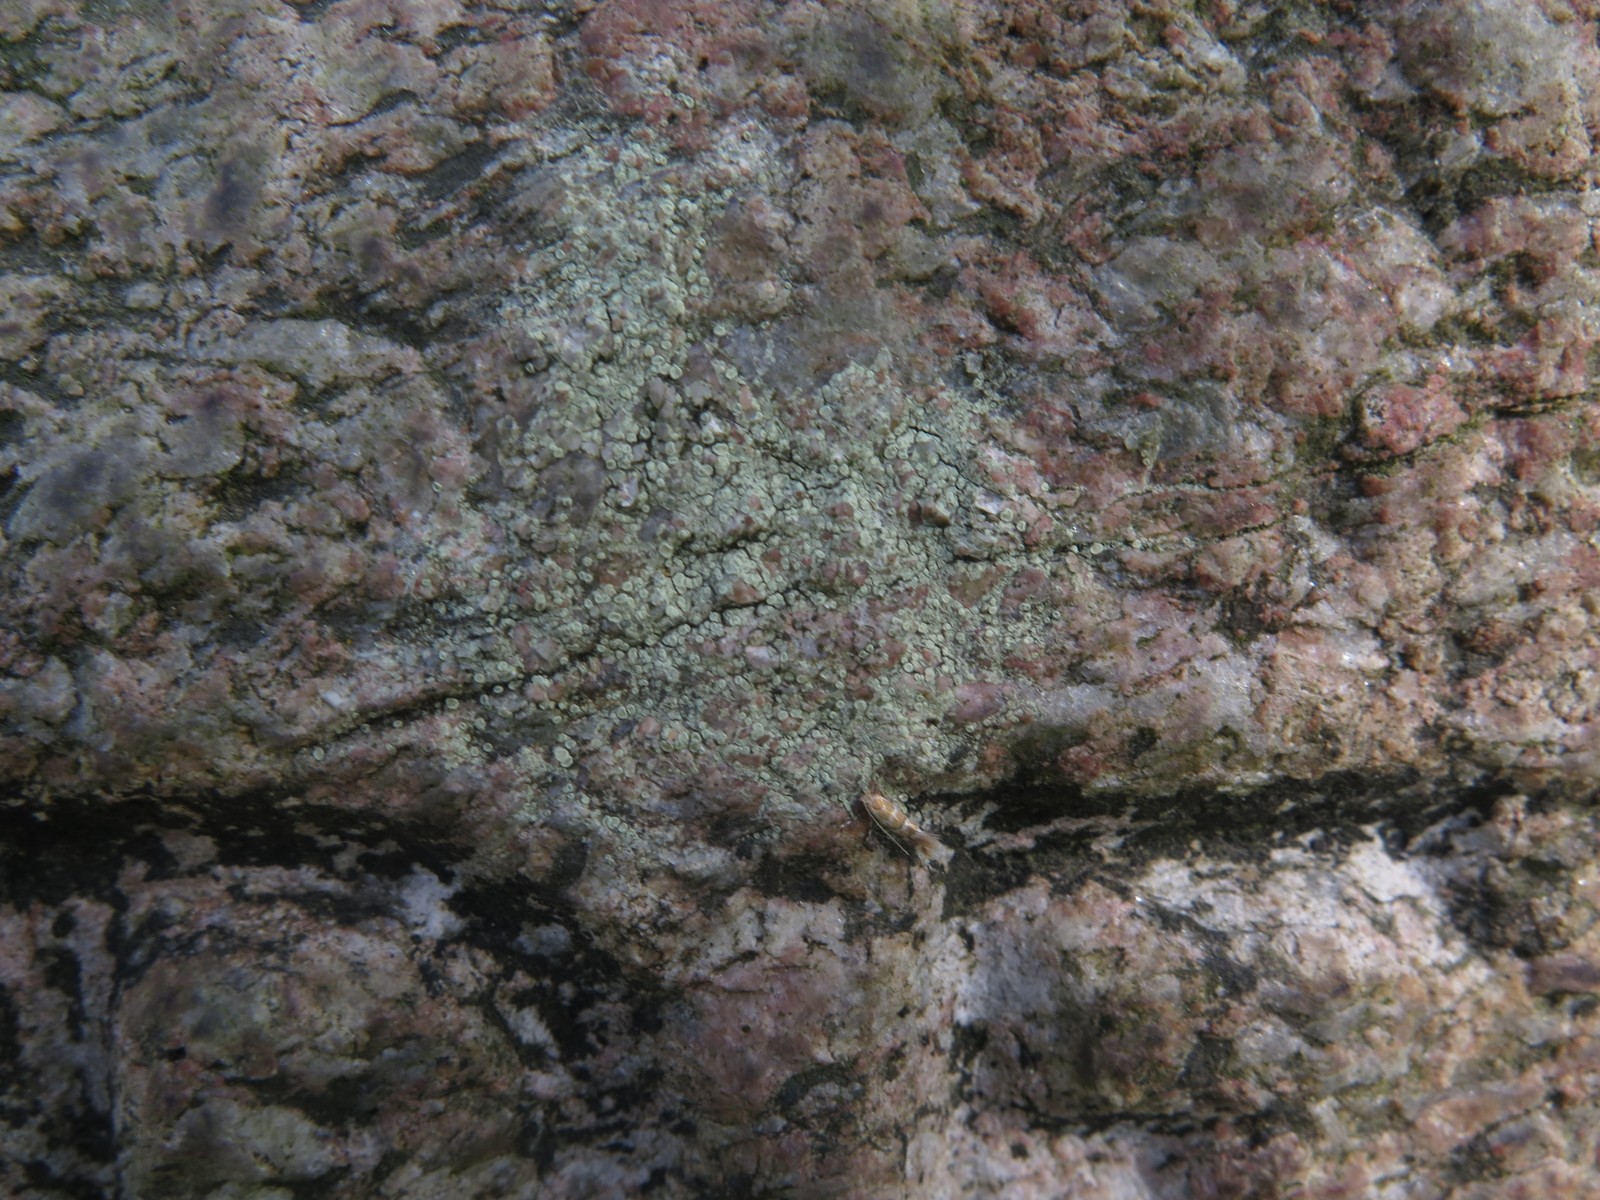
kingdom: Fungi
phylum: Ascomycota
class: Lecanoromycetes
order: Lecanorales
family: Lecanoraceae
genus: Lecanora
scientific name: Lecanora polytropa
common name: bleggrøn kantskivelav
